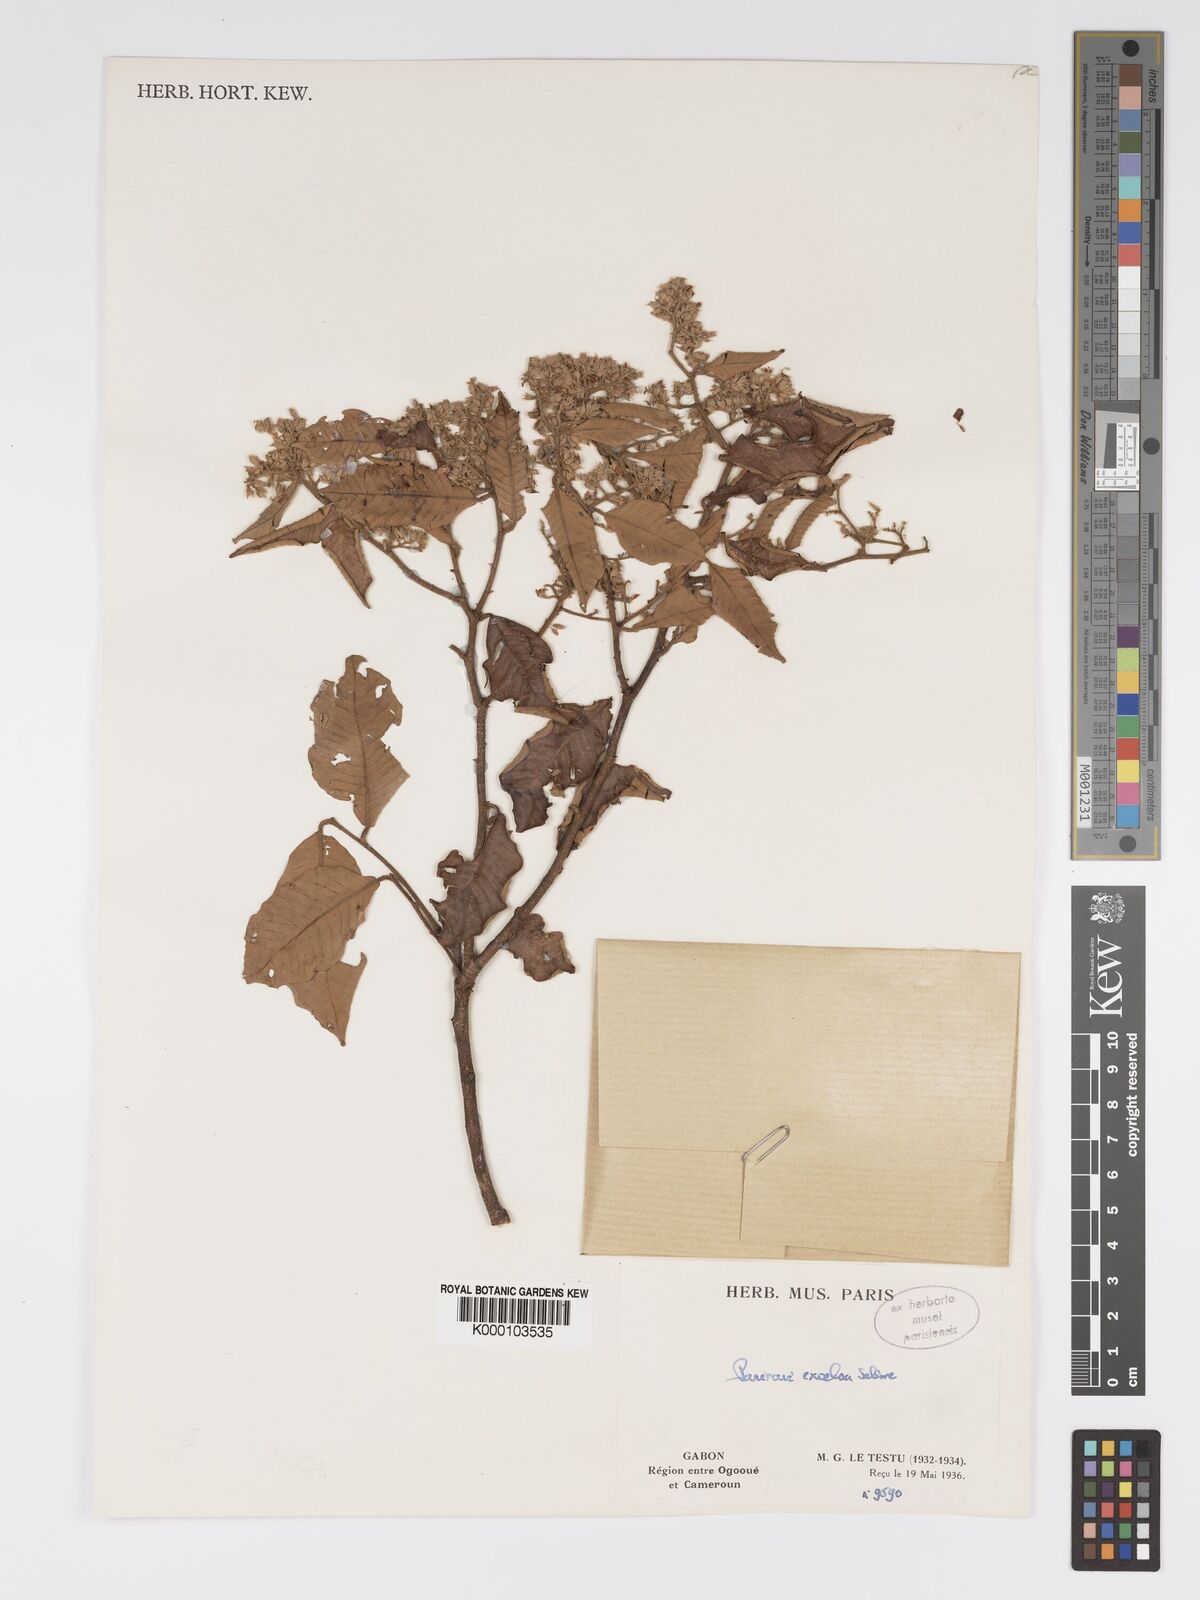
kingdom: Plantae
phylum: Tracheophyta
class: Magnoliopsida
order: Malpighiales
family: Chrysobalanaceae
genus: Parinari
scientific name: Parinari excelsa
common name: Guinea-plum
